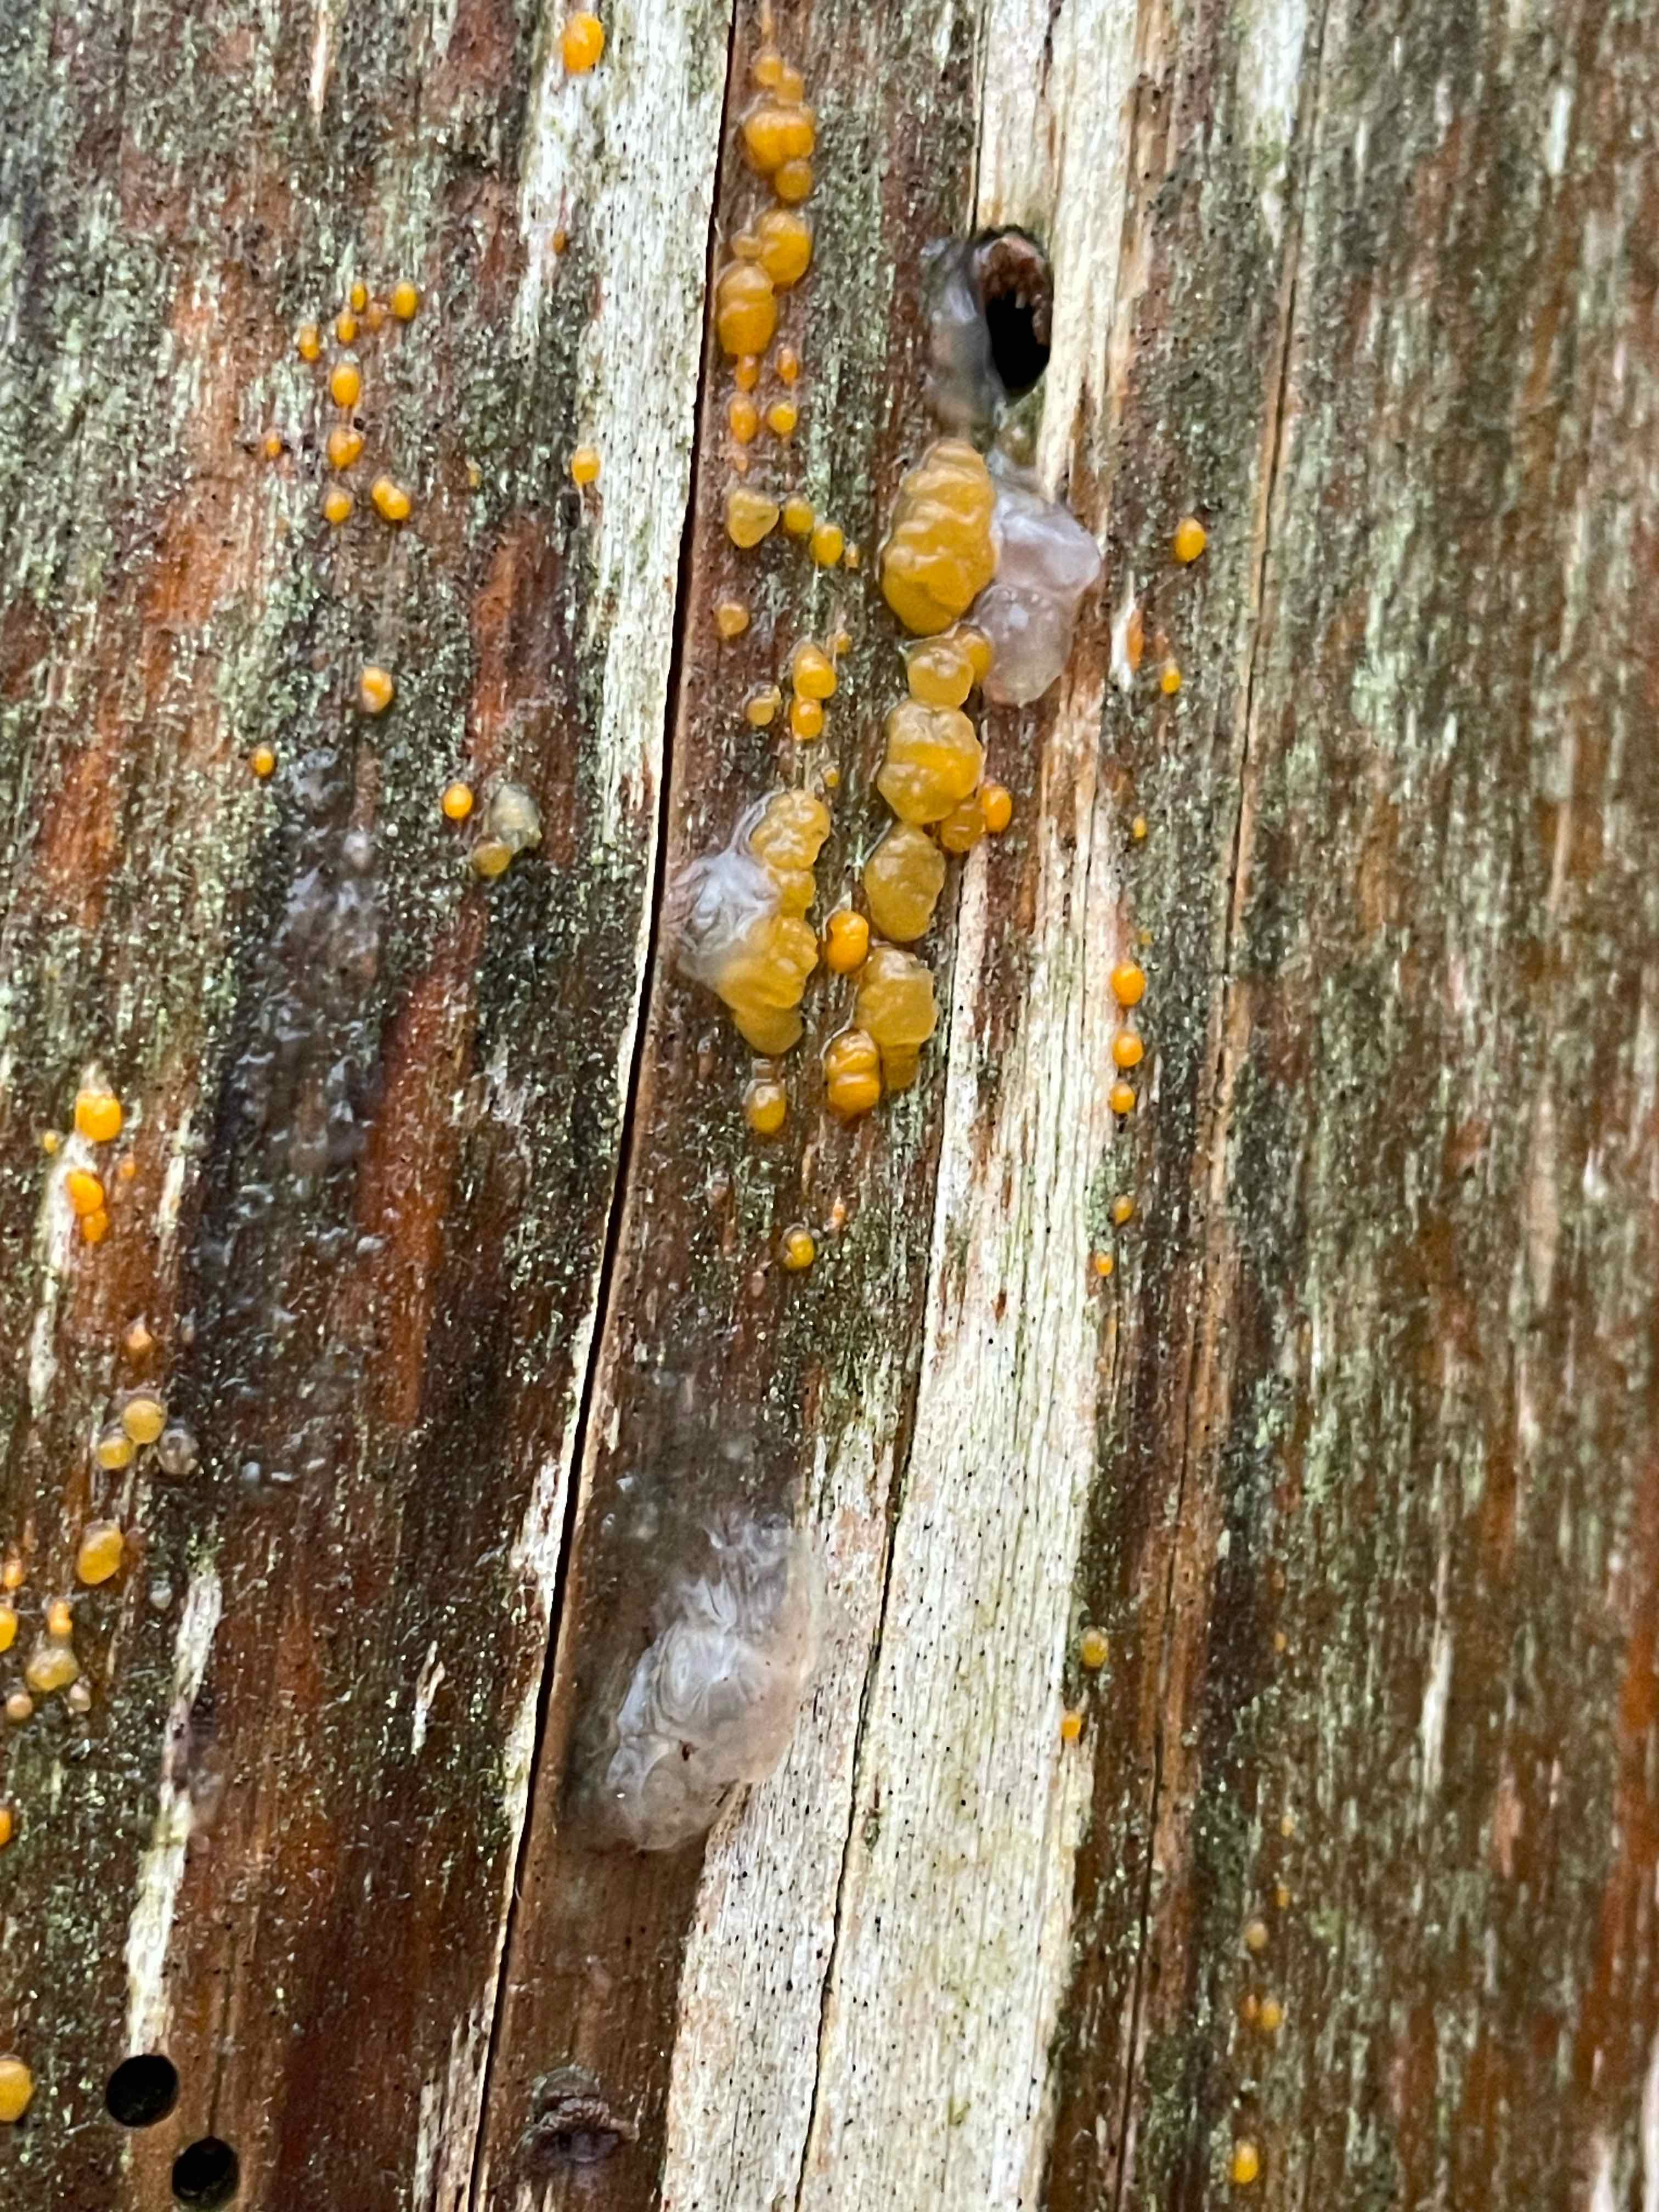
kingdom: Fungi
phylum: Basidiomycota
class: Dacrymycetes
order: Dacrymycetales
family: Dacrymycetaceae
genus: Dacrymyces
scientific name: Dacrymyces stillatus
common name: almindelig tåresvamp
